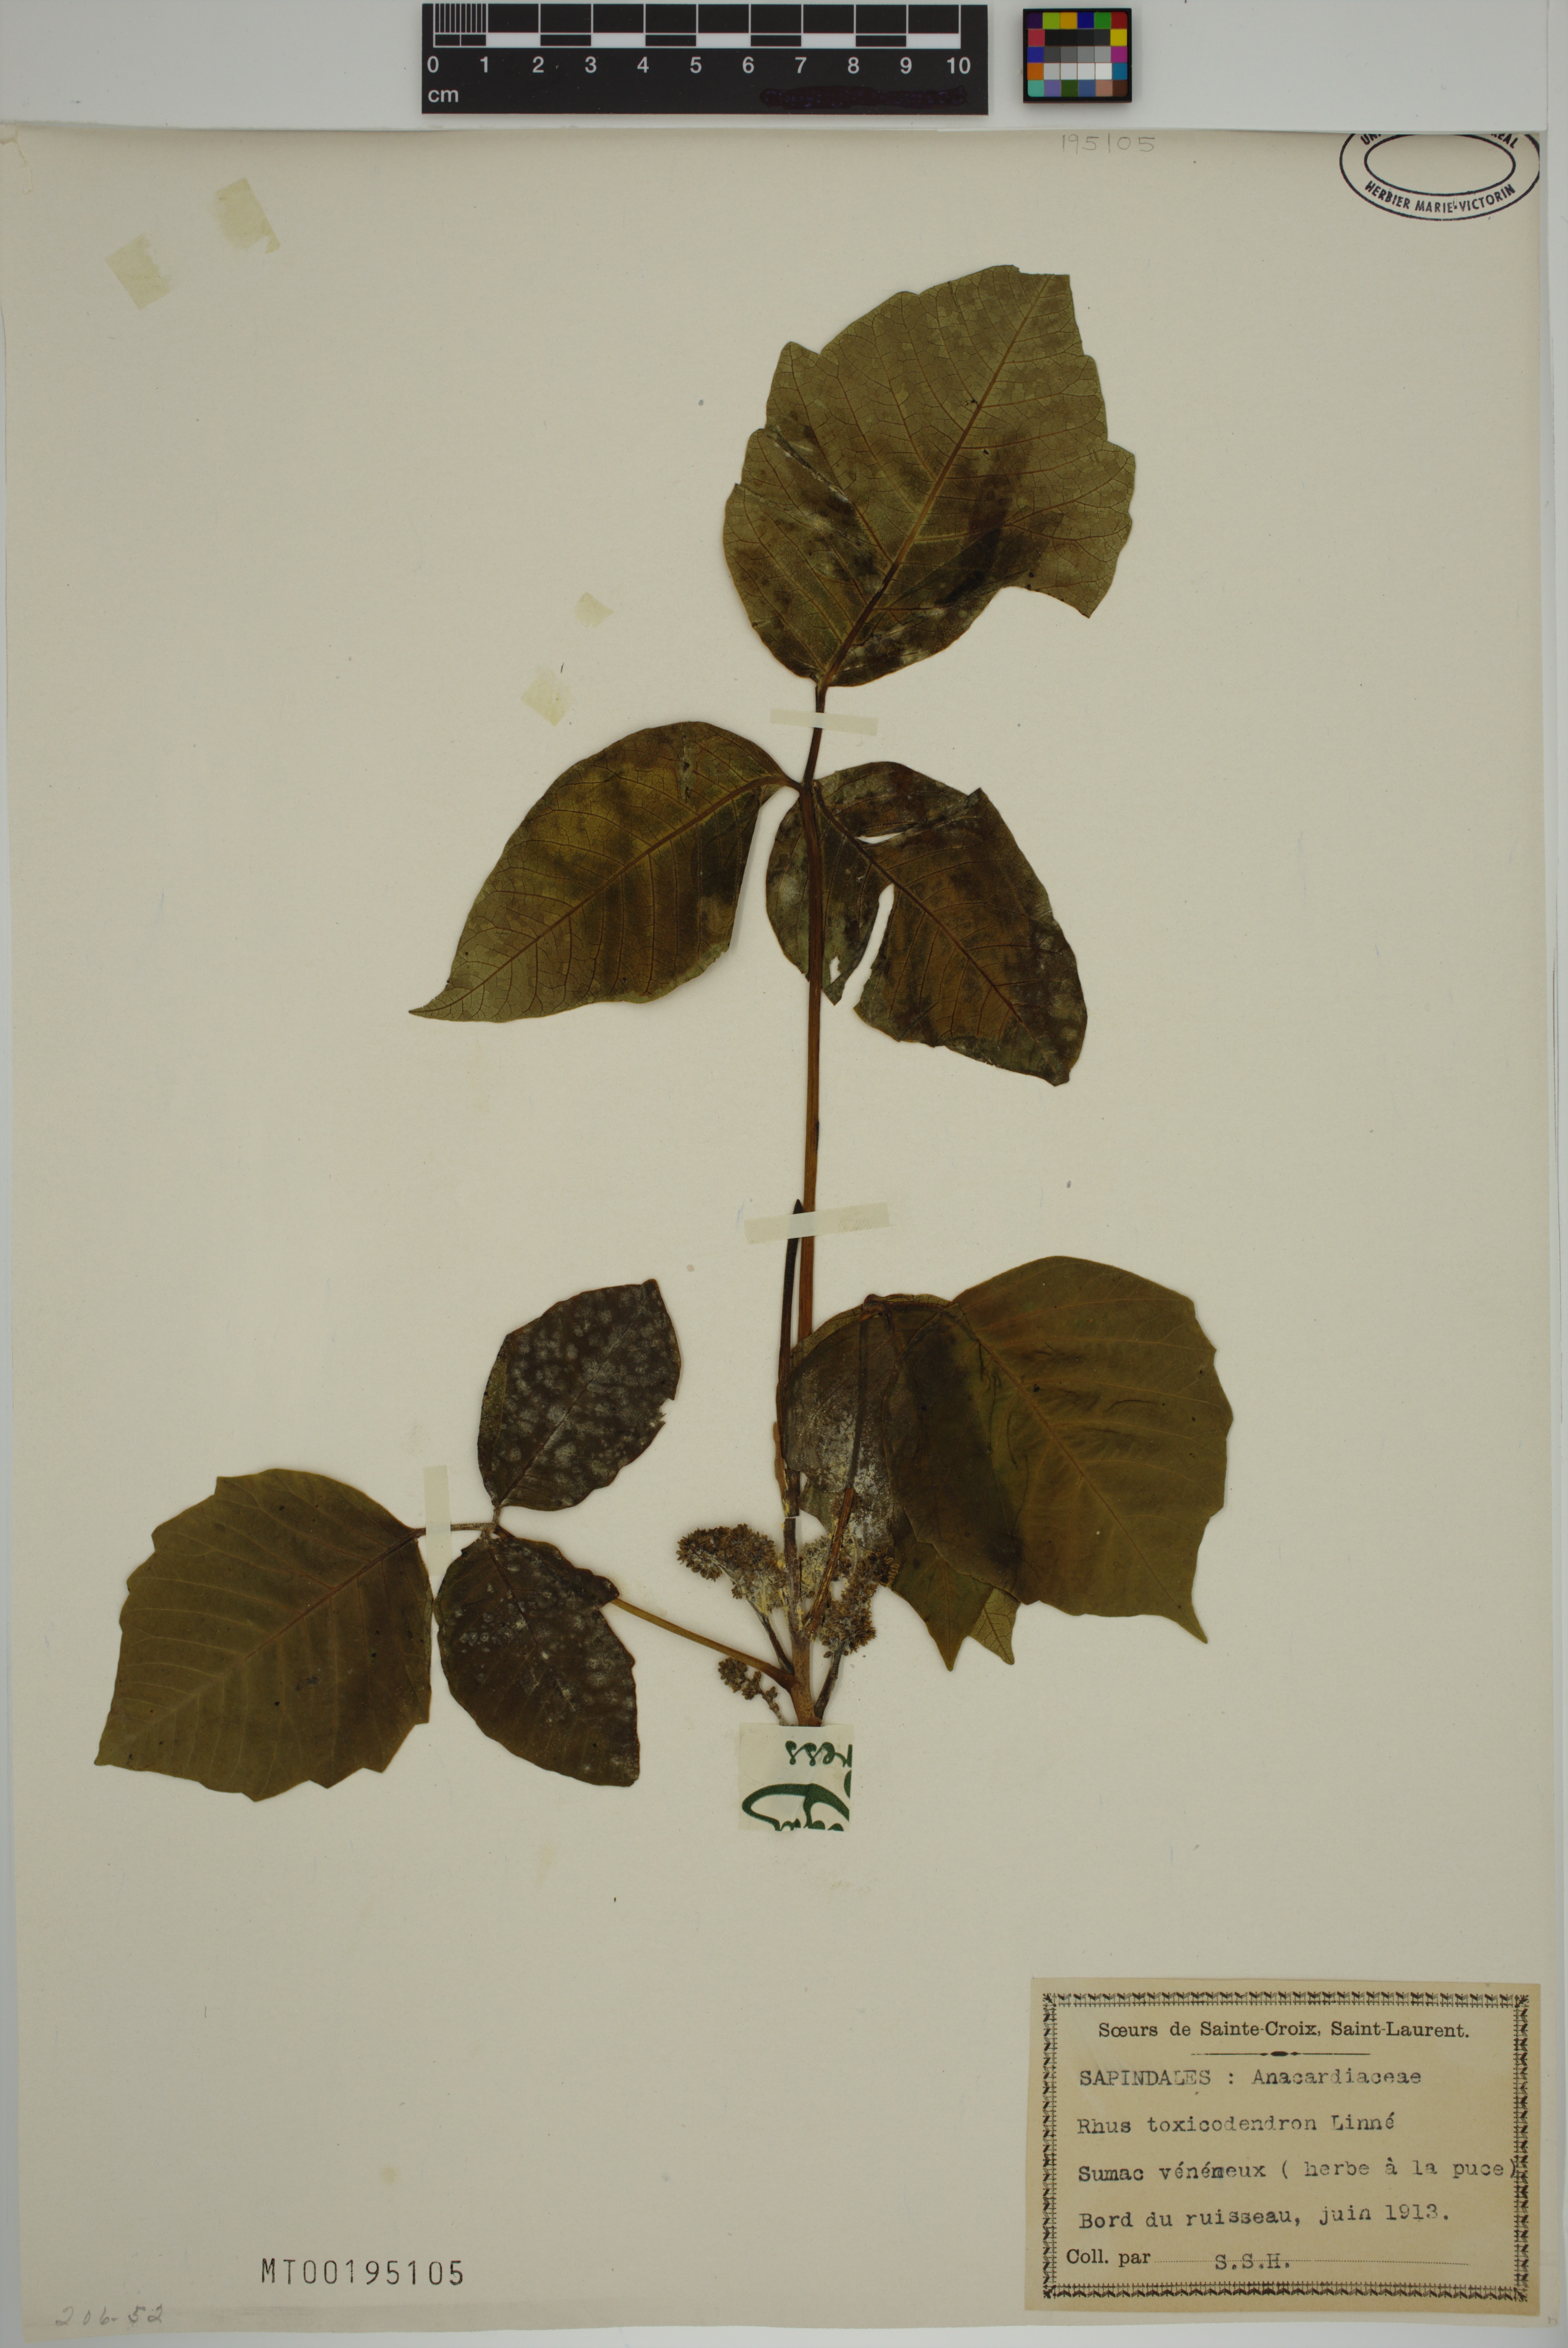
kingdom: Plantae
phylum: Tracheophyta
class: Magnoliopsida
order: Sapindales
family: Anacardiaceae
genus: Toxicodendron
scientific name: Toxicodendron
